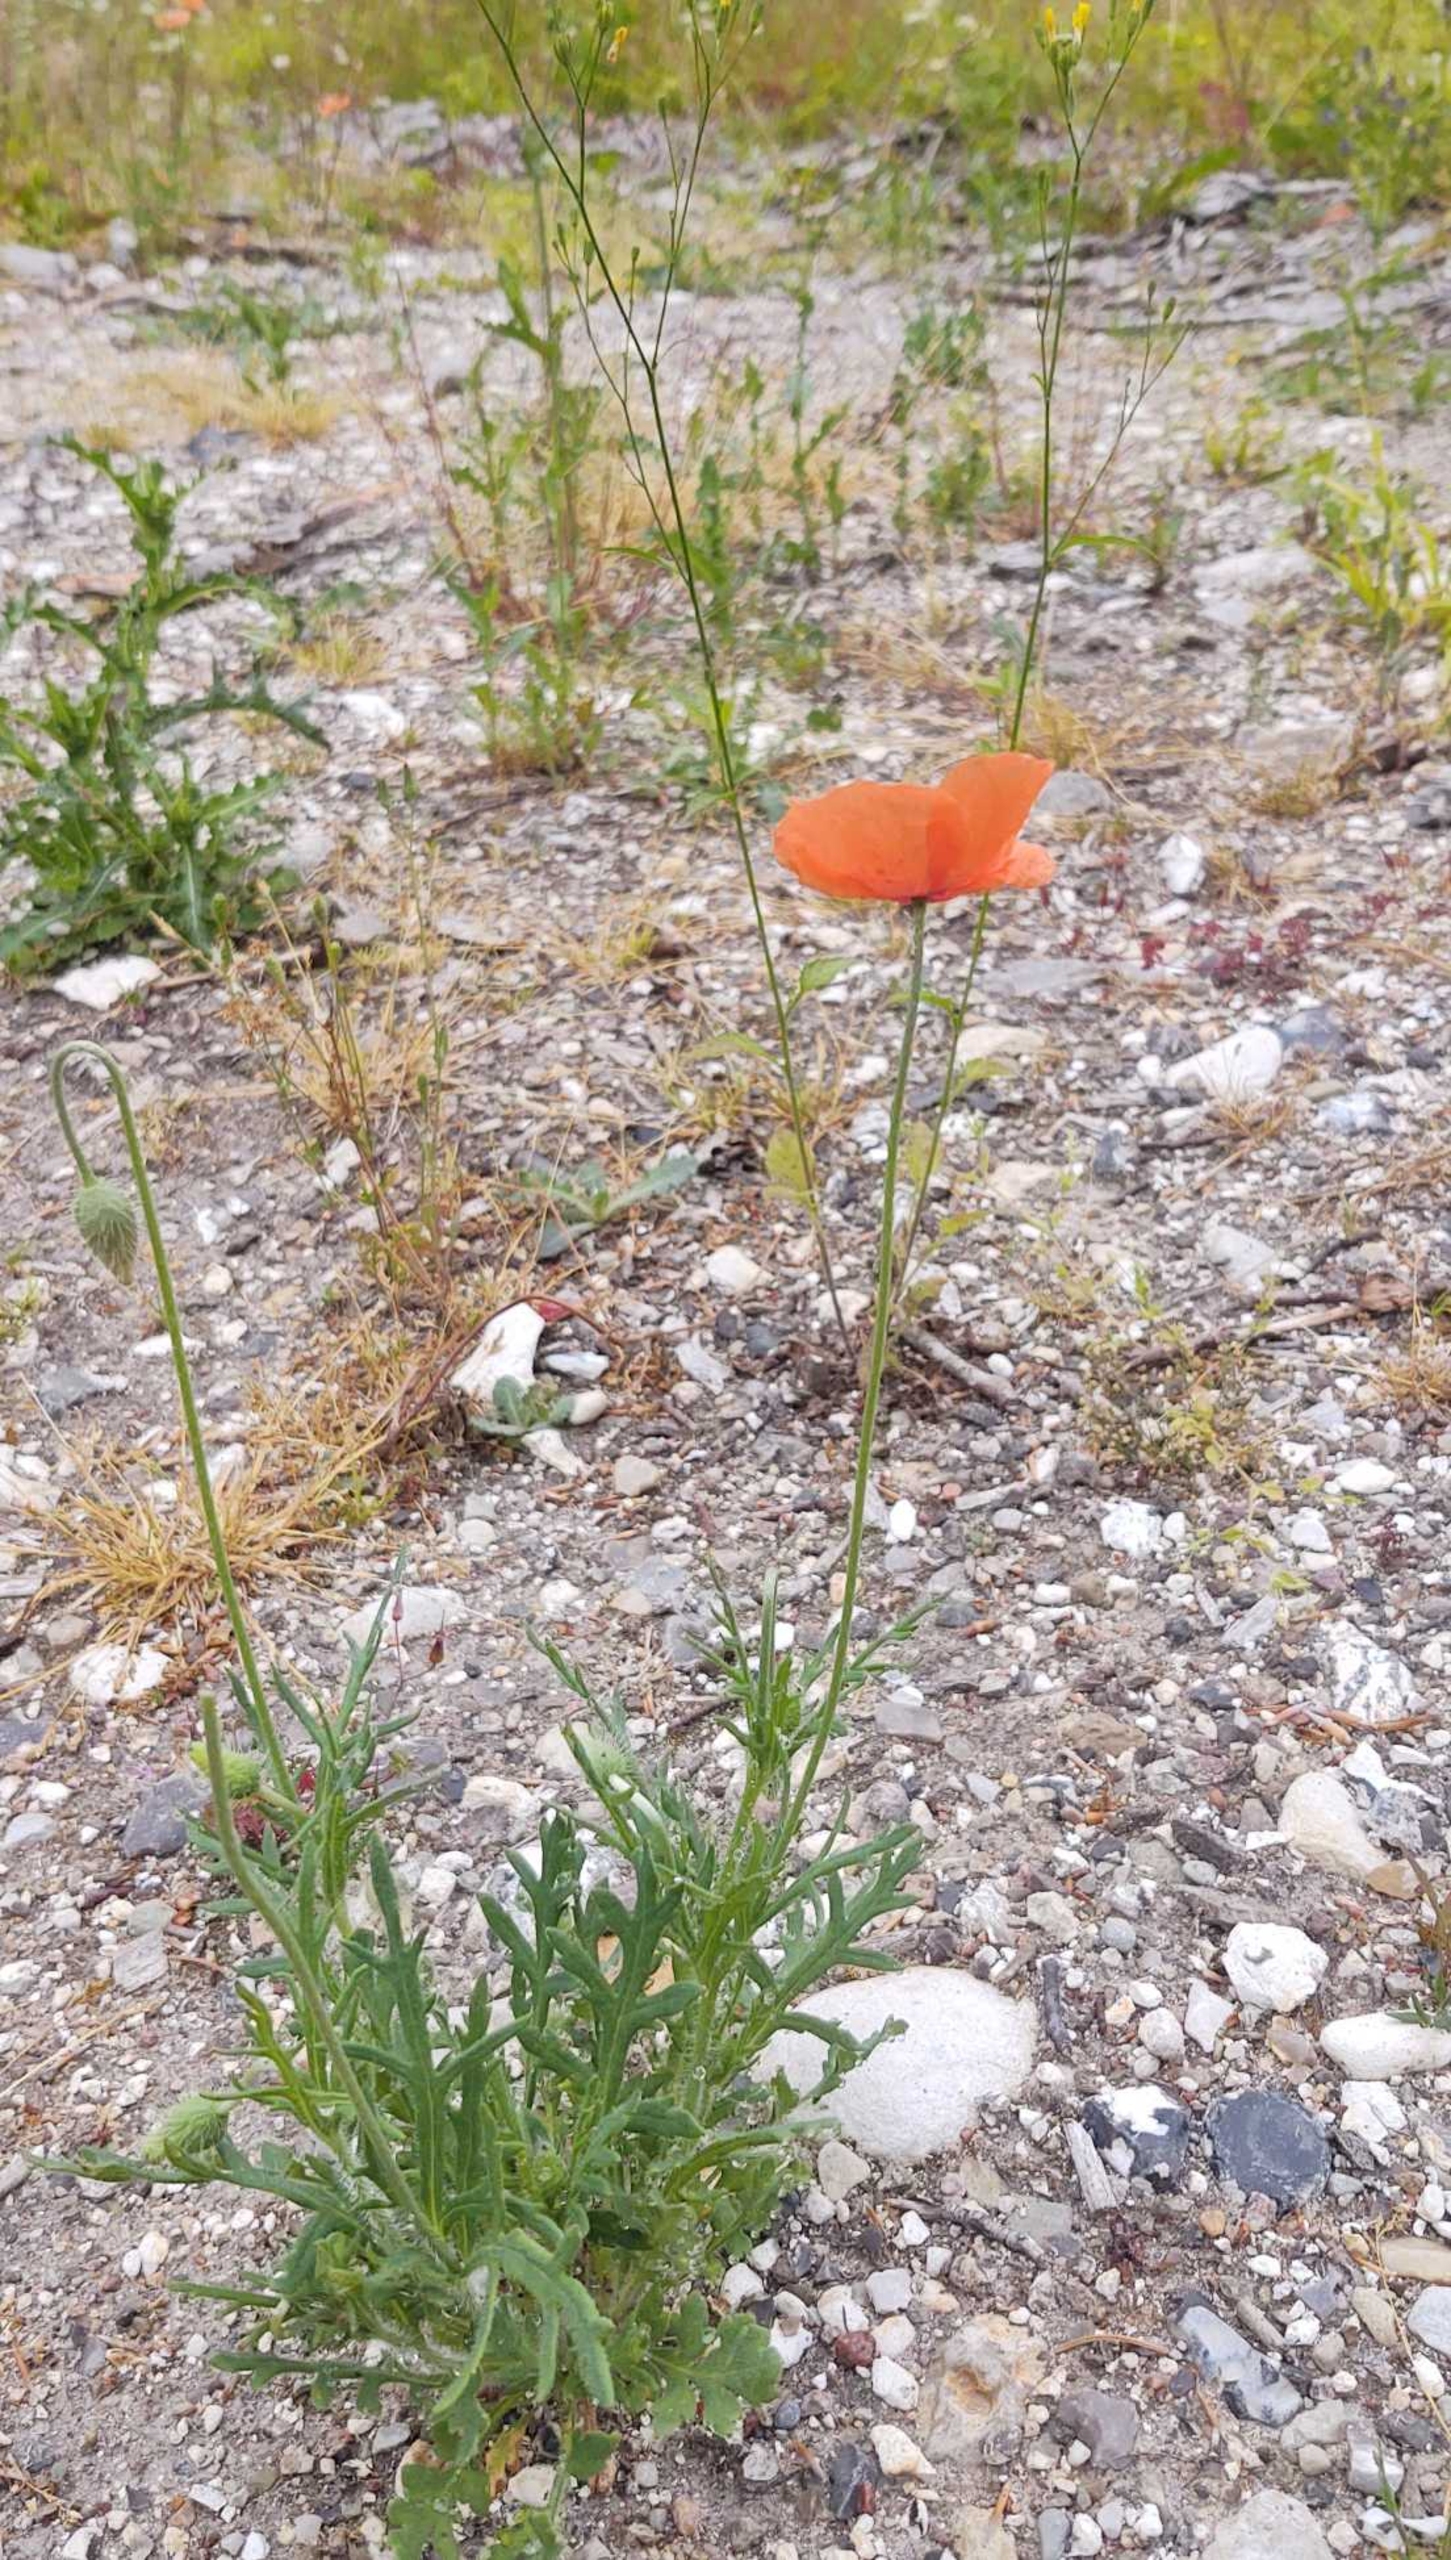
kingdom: Plantae
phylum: Tracheophyta
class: Magnoliopsida
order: Ranunculales
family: Papaveraceae
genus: Papaver
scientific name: Papaver dubium
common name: Gærde-valmue
